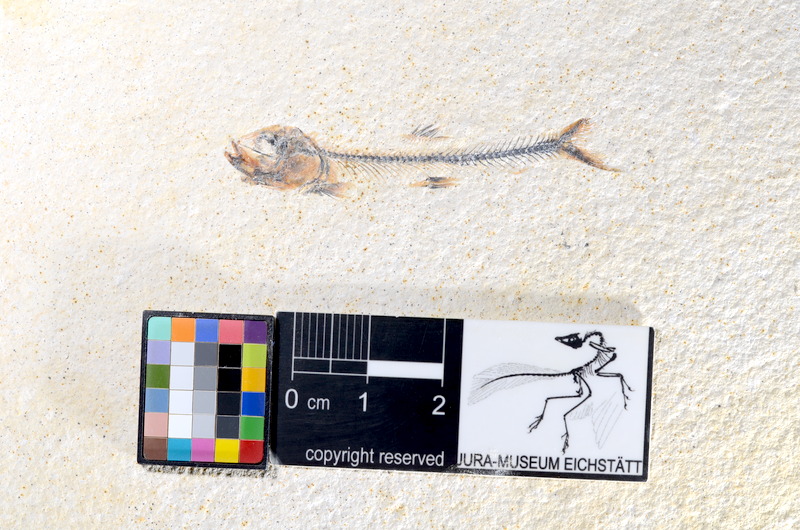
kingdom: Animalia
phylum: Chordata
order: Salmoniformes
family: Orthogonikleithridae
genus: Orthogonikleithrus
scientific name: Orthogonikleithrus hoelli
